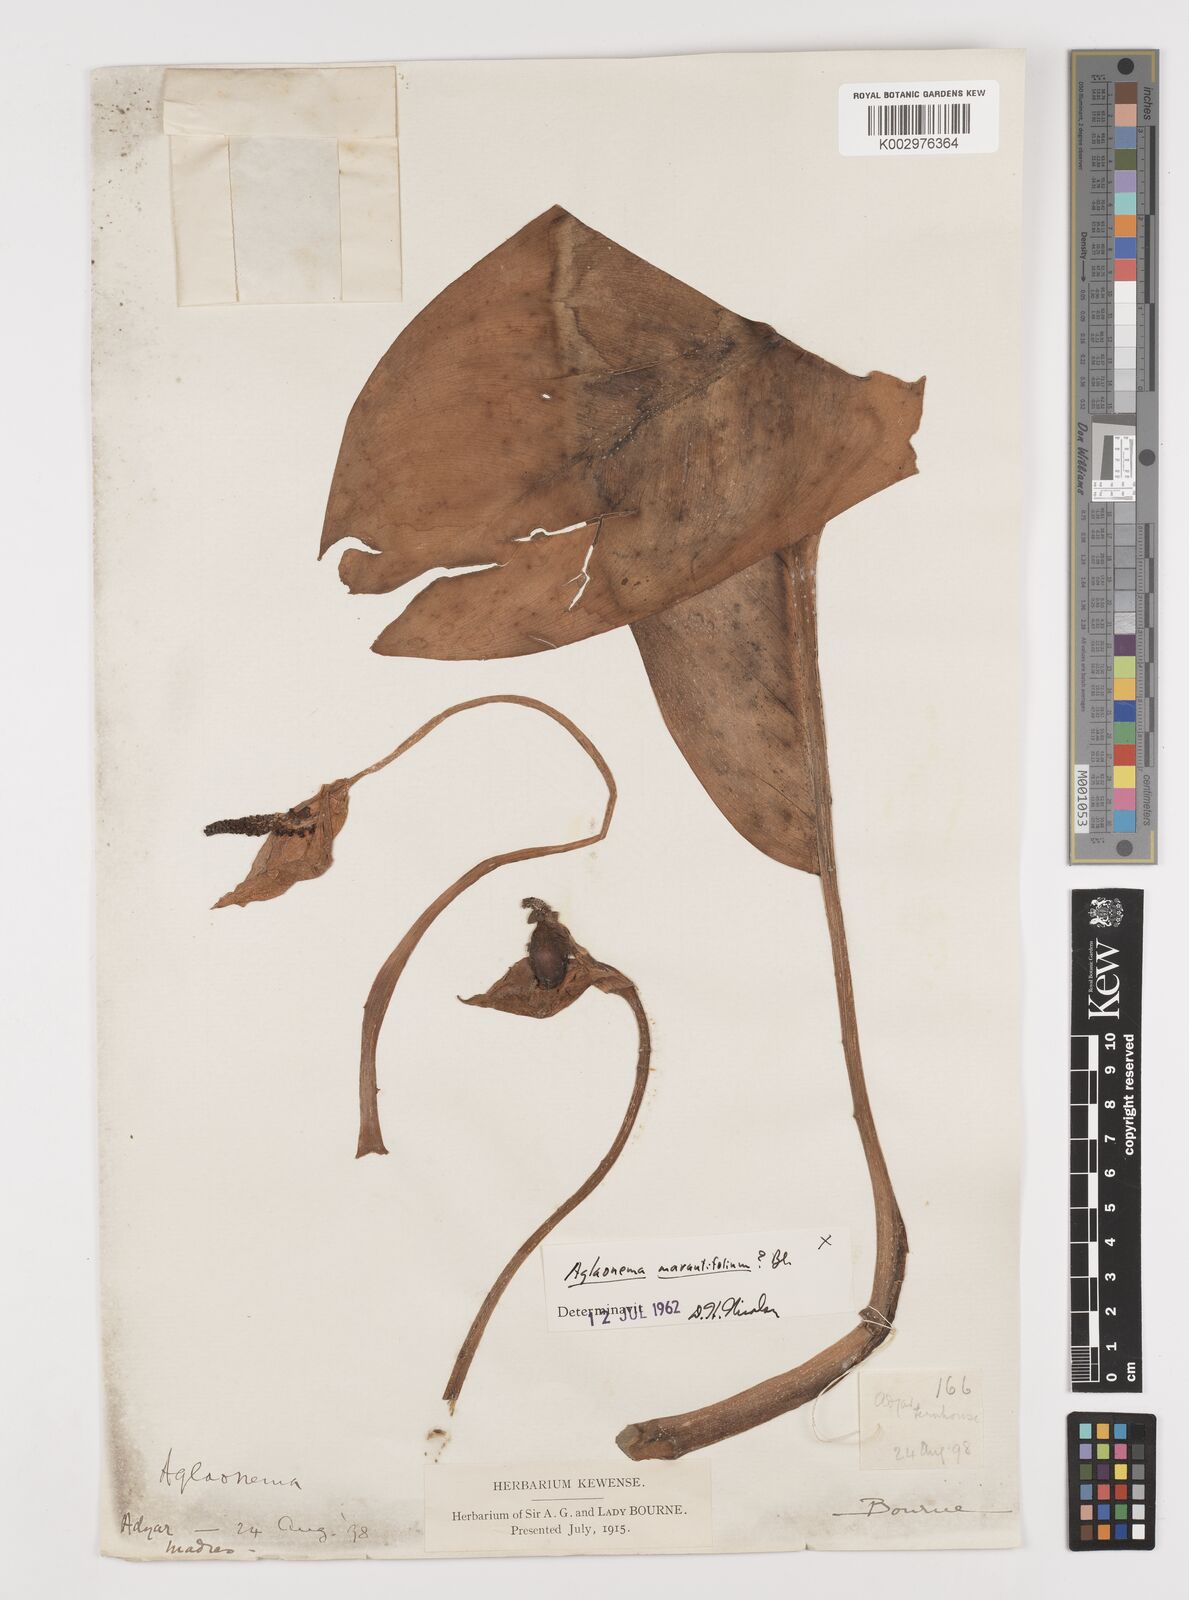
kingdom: Plantae
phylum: Tracheophyta
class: Liliopsida
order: Alismatales
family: Araceae
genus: Aglaonema
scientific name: Aglaonema marantifolium
